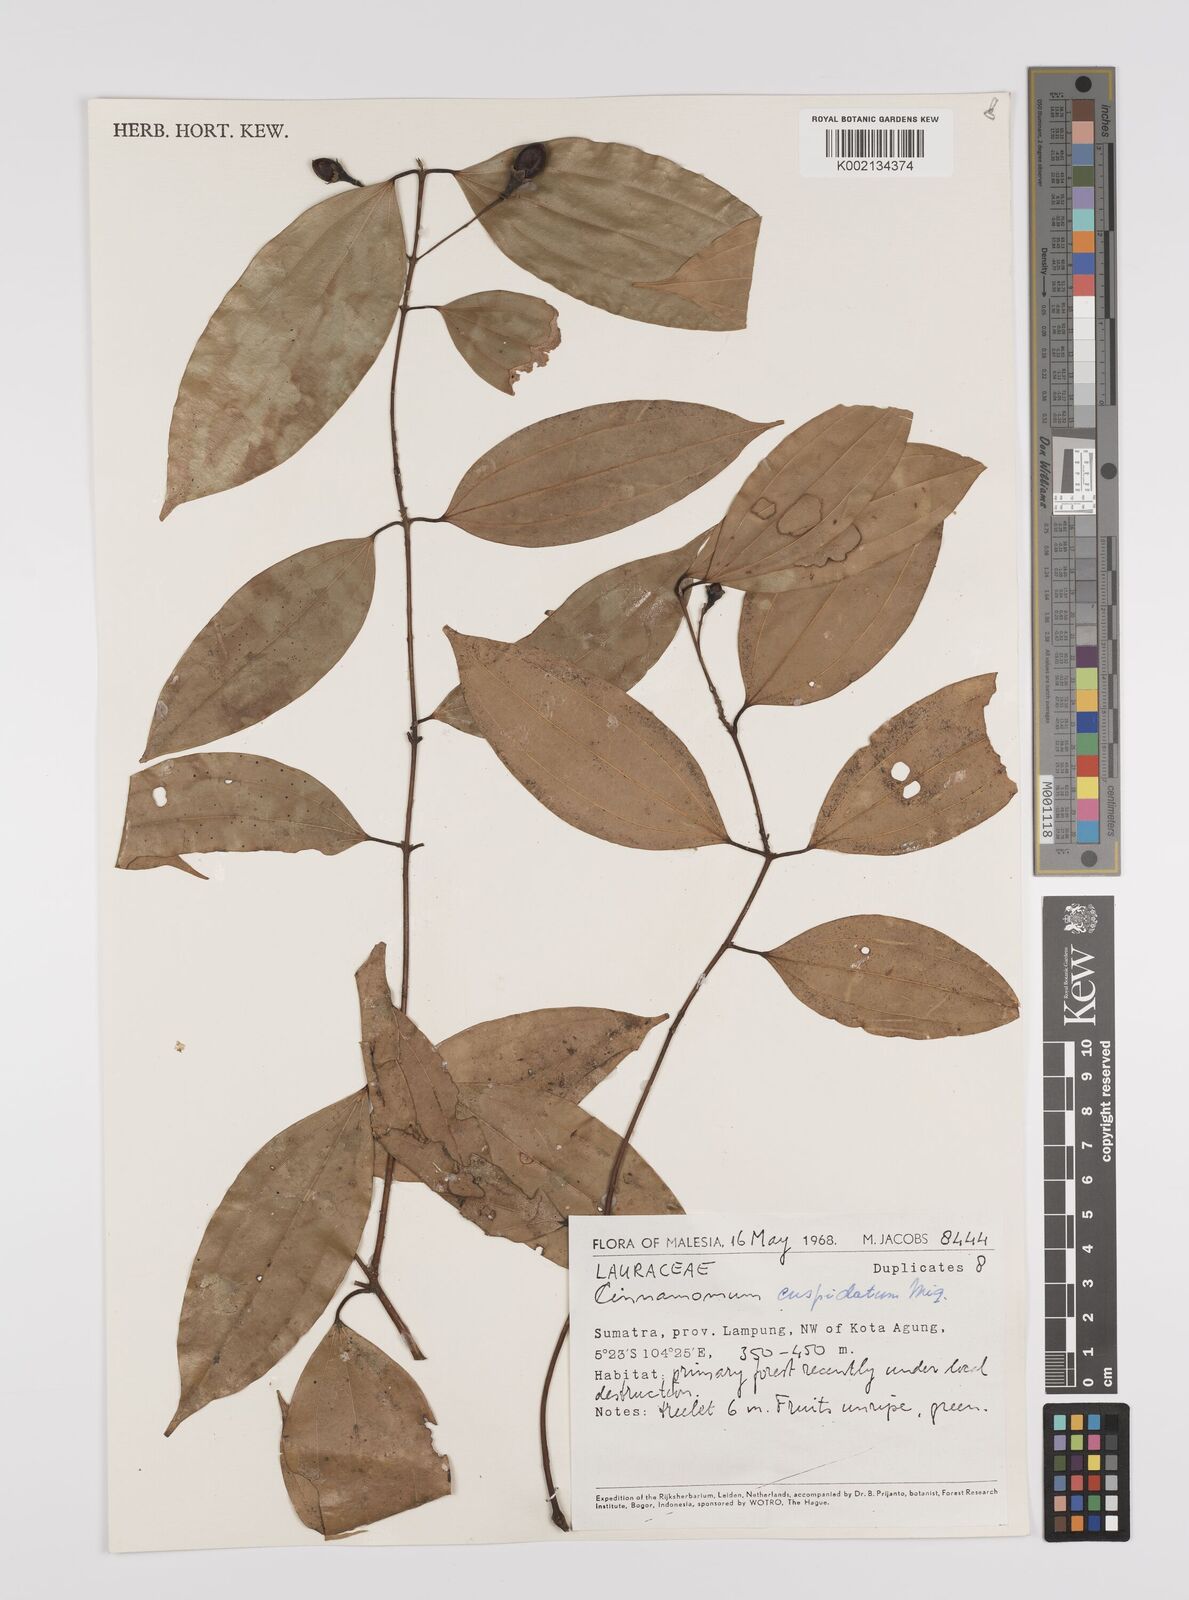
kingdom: Plantae
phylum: Tracheophyta
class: Magnoliopsida
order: Laurales
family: Lauraceae
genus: Cinnamomum
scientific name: Cinnamomum cuspidatum
